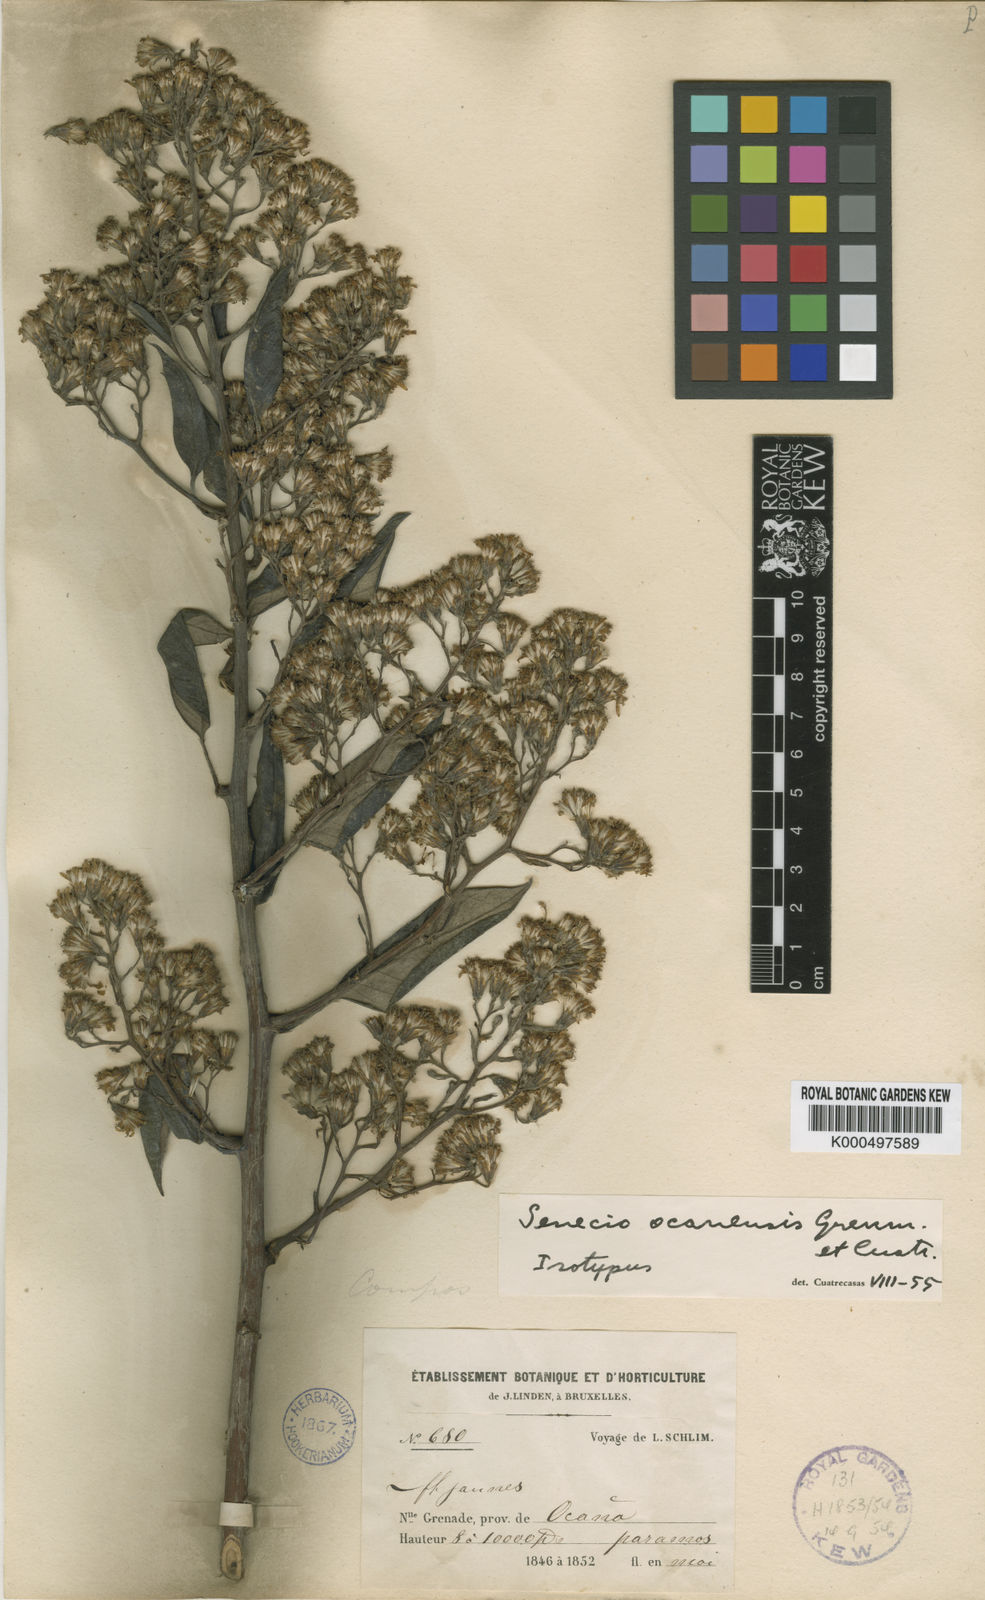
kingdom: Plantae
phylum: Tracheophyta
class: Magnoliopsida
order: Asterales
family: Asteraceae
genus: Dendrophorbium
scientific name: Dendrophorbium ocanense
